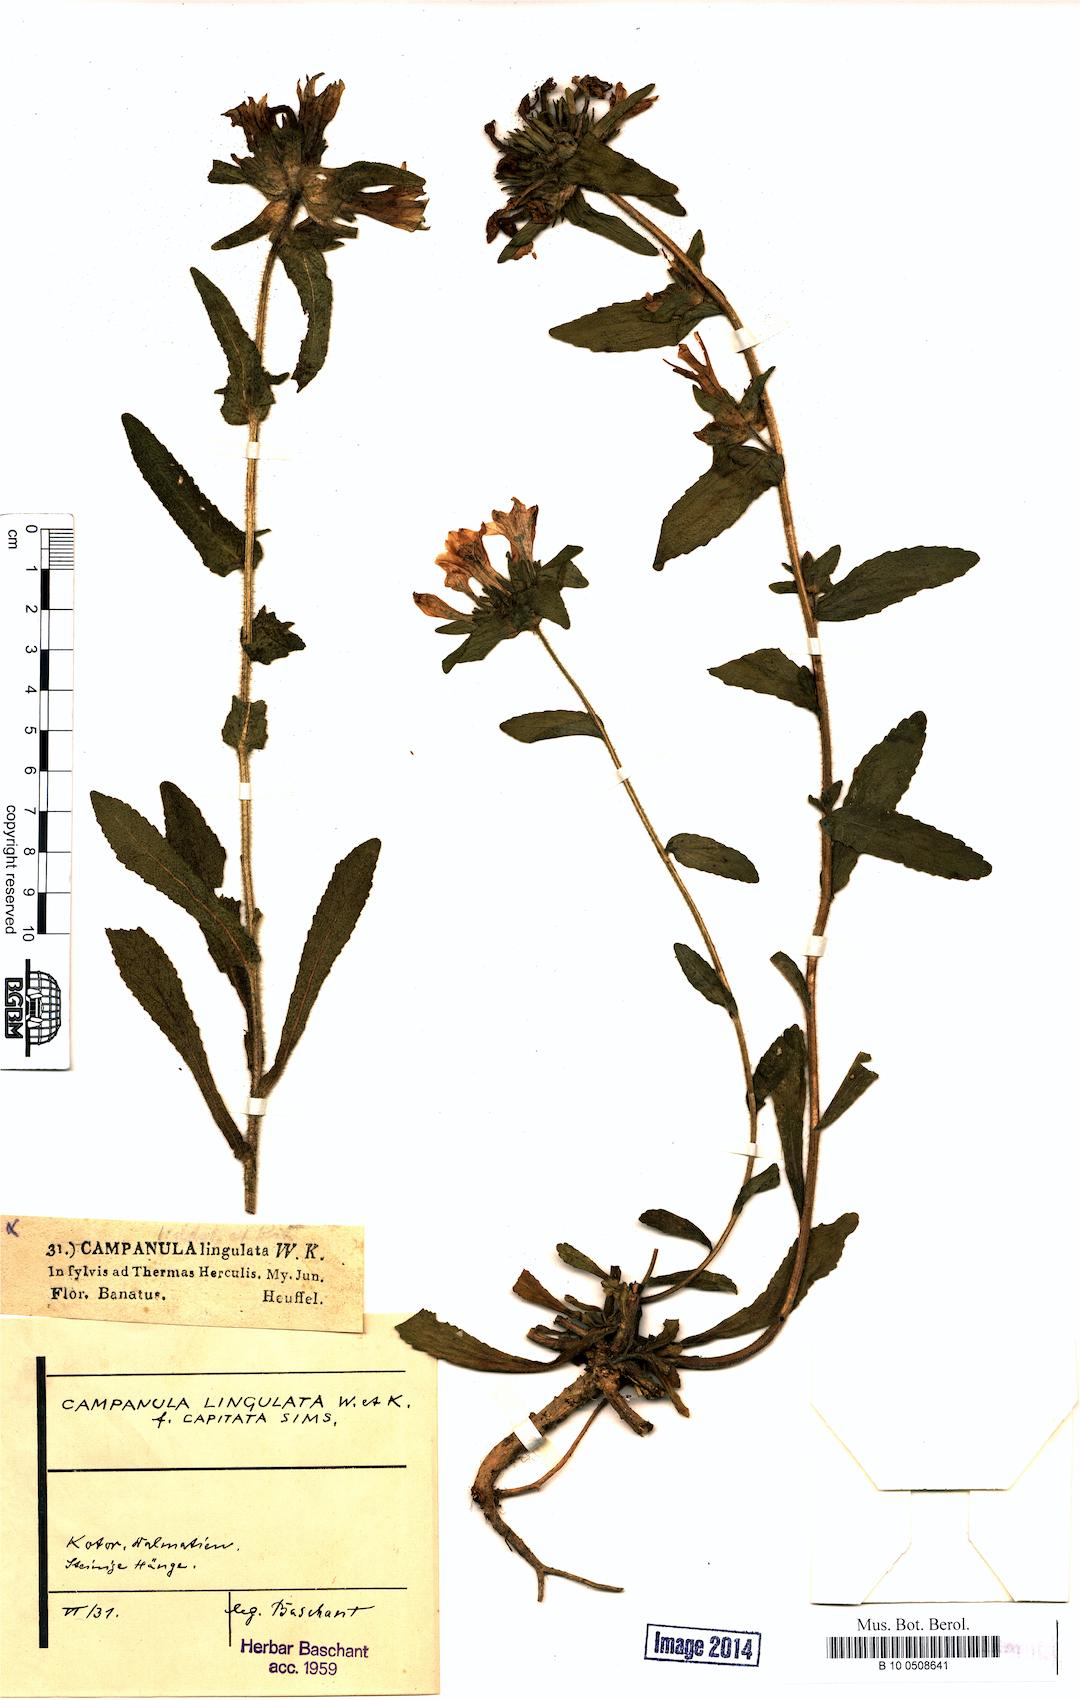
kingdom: Plantae
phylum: Tracheophyta
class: Magnoliopsida
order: Asterales
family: Campanulaceae
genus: Campanula
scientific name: Campanula lingulata
